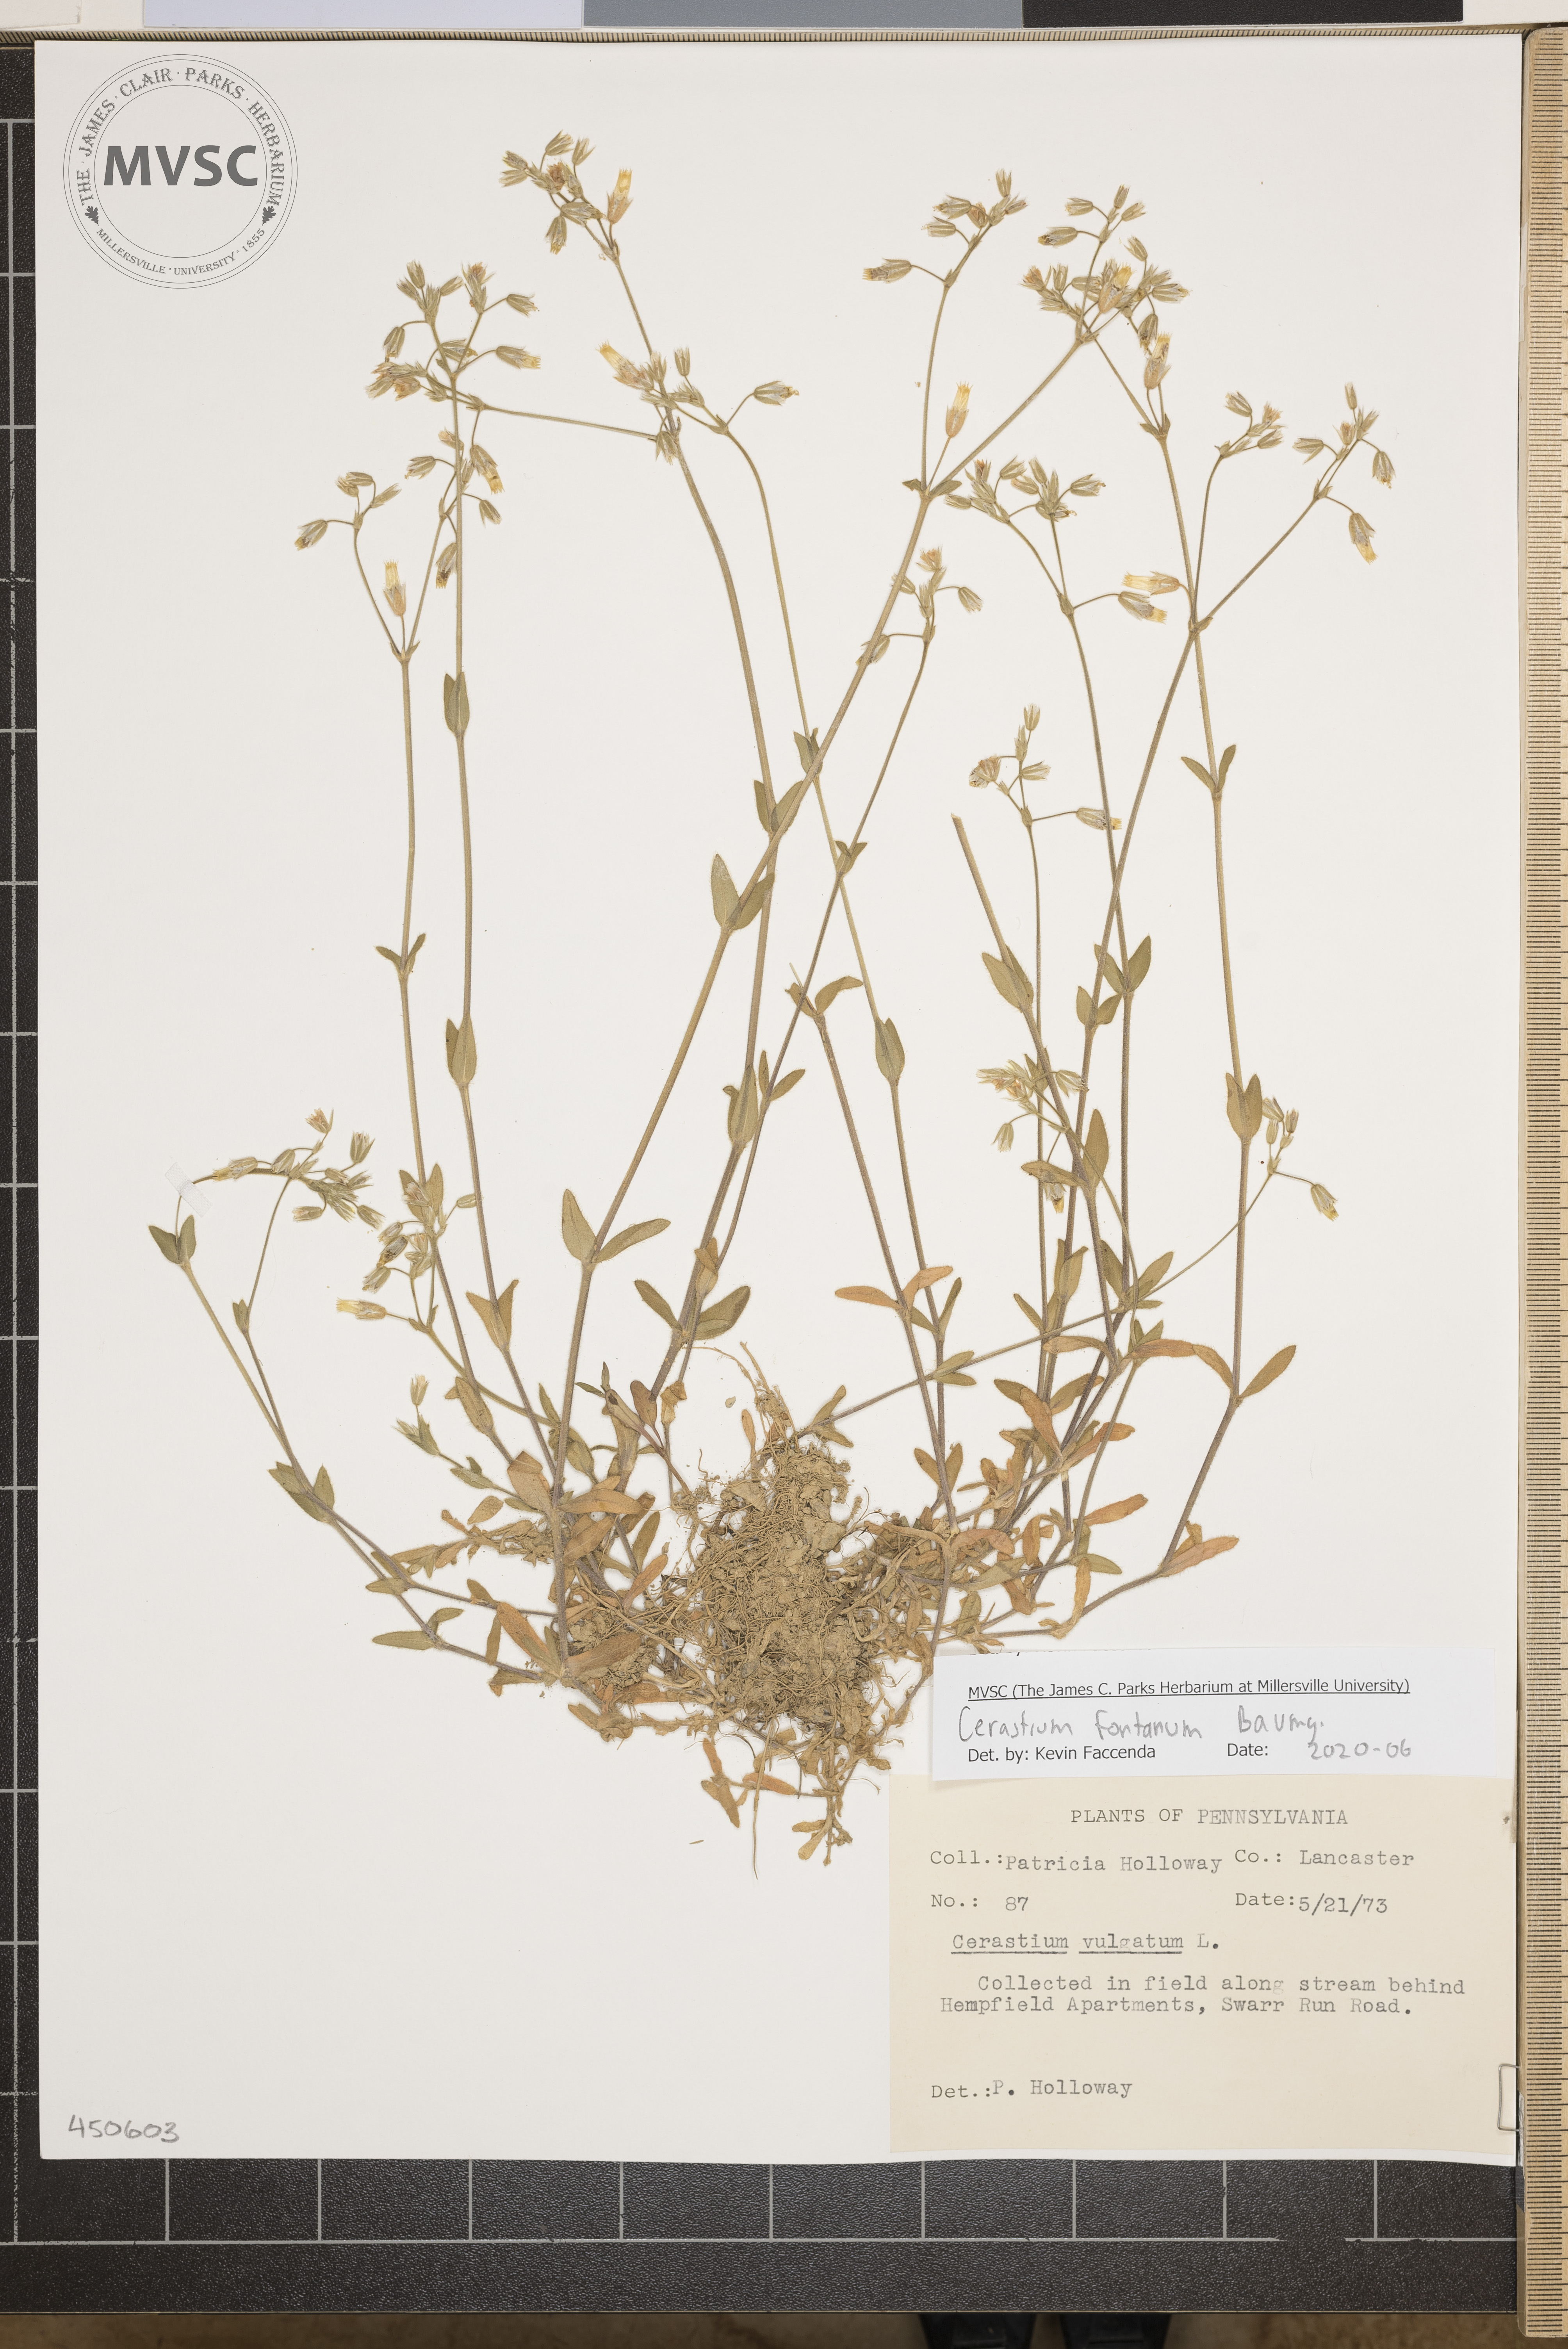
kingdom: Plantae
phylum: Tracheophyta
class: Magnoliopsida
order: Caryophyllales
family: Caryophyllaceae
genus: Cerastium
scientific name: Cerastium fontanum
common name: Common mouse-ear
